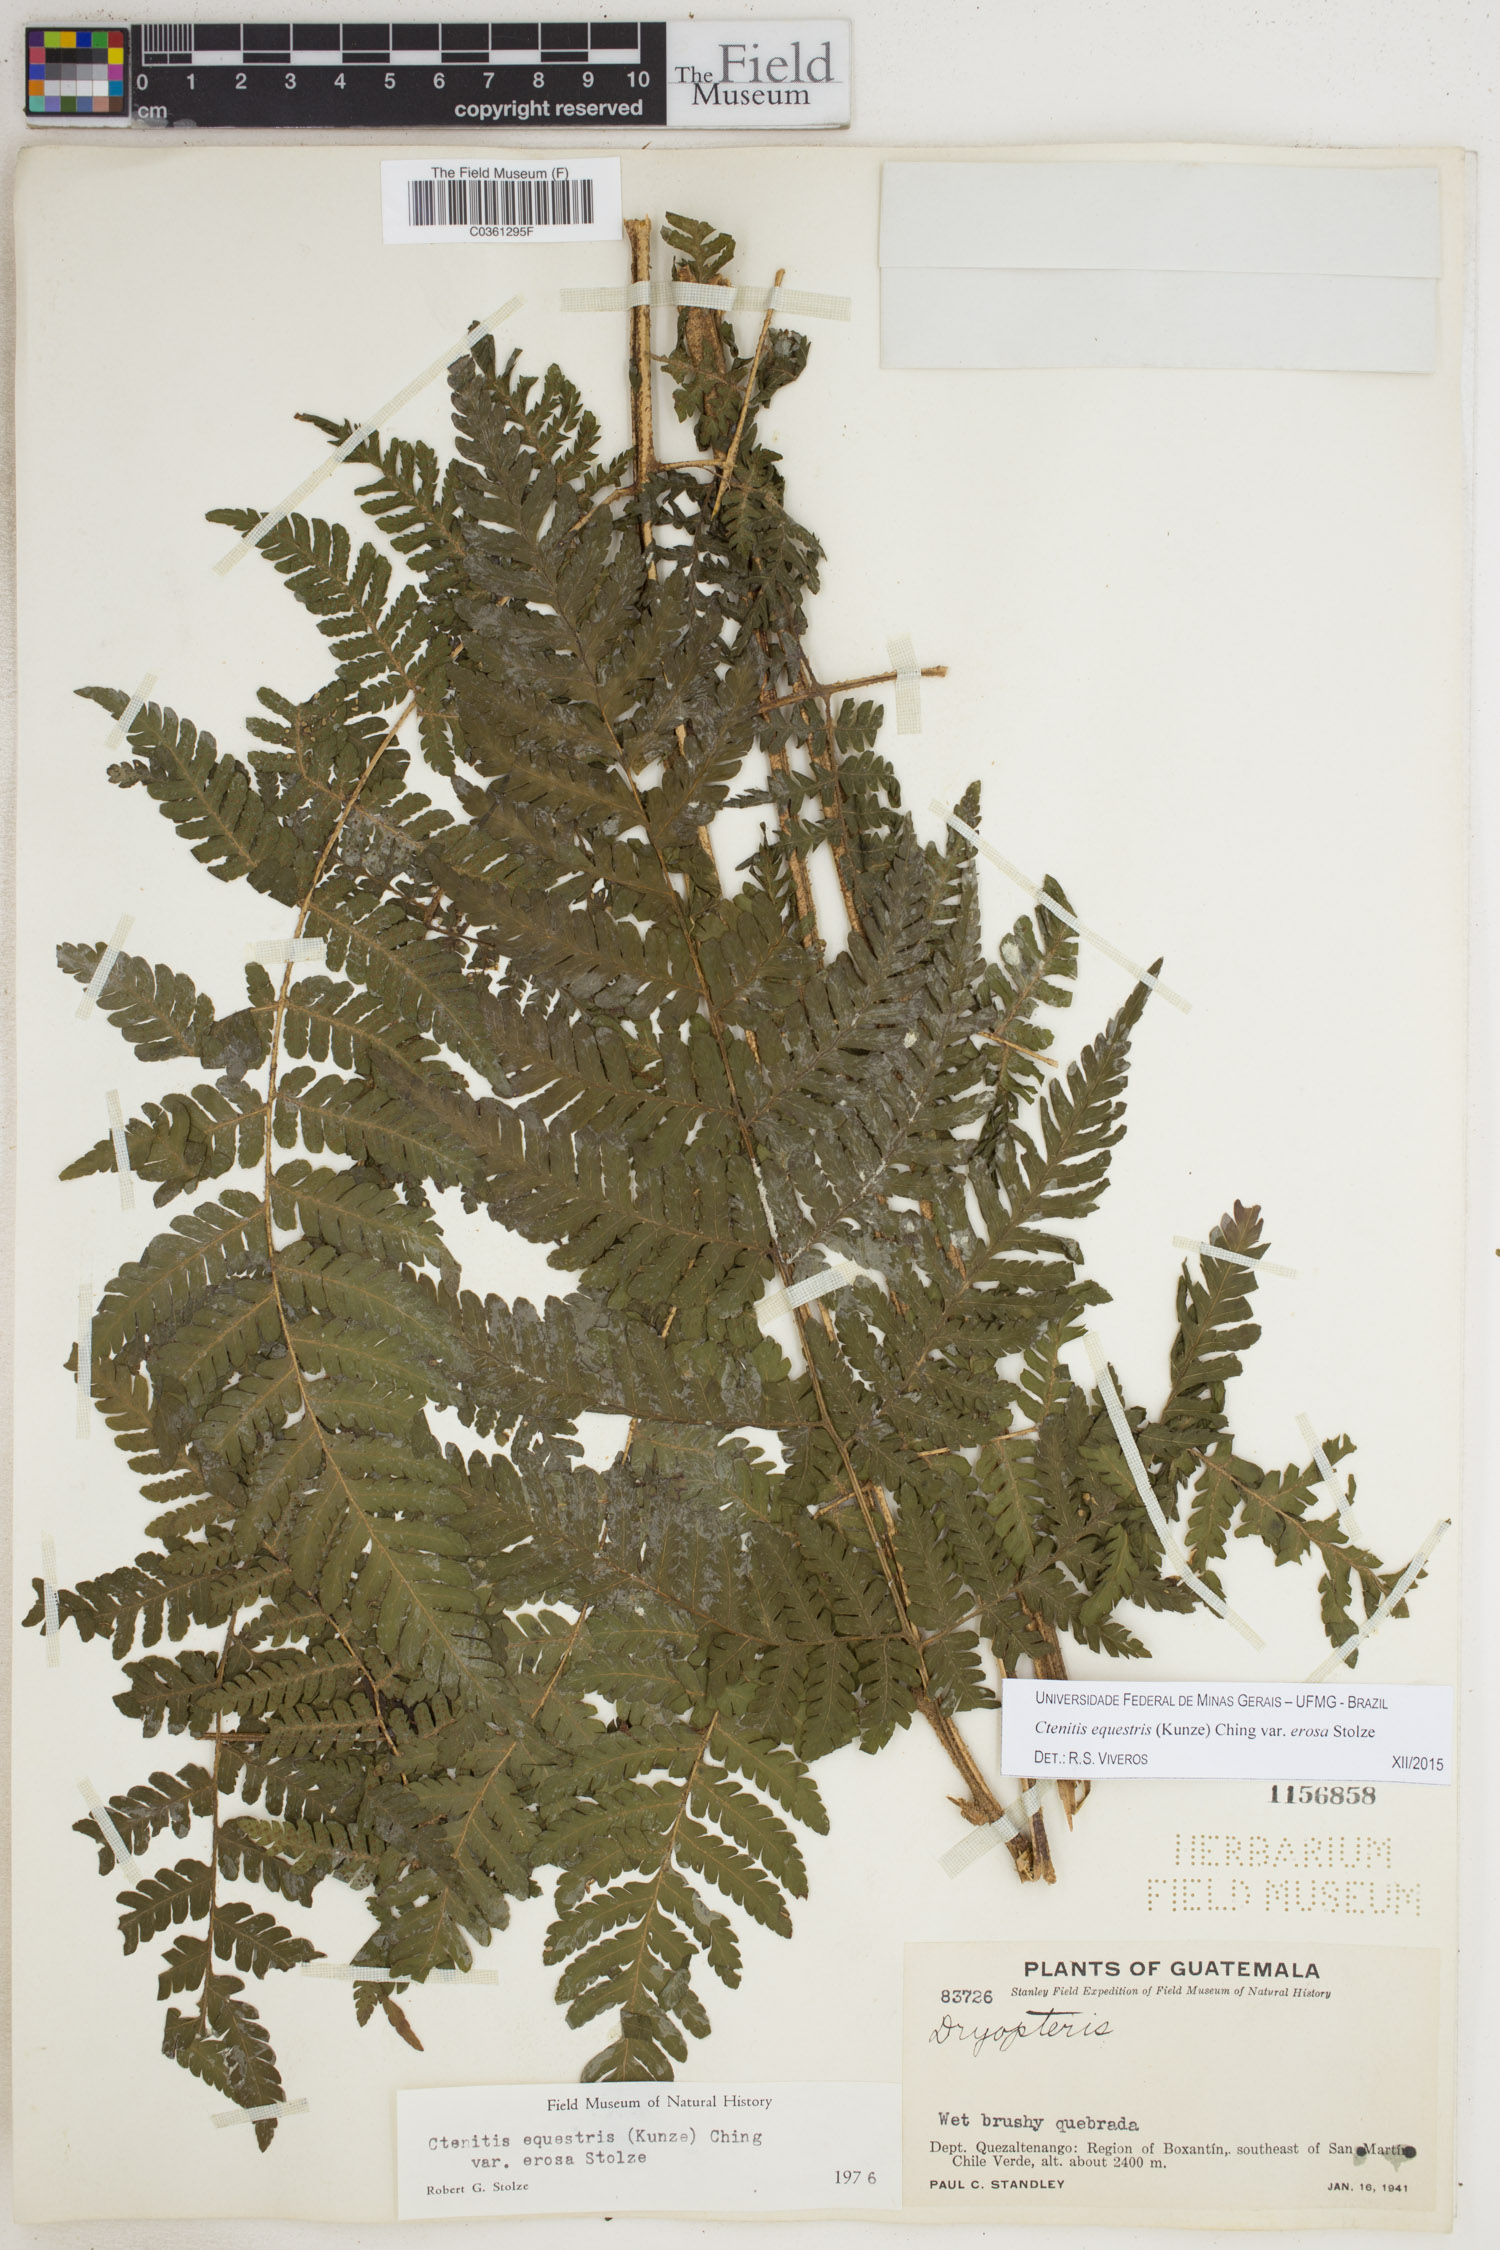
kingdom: Plantae
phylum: Tracheophyta
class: Polypodiopsida
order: Polypodiales
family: Dryopteridaceae
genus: Ctenitis
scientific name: Ctenitis equestris
